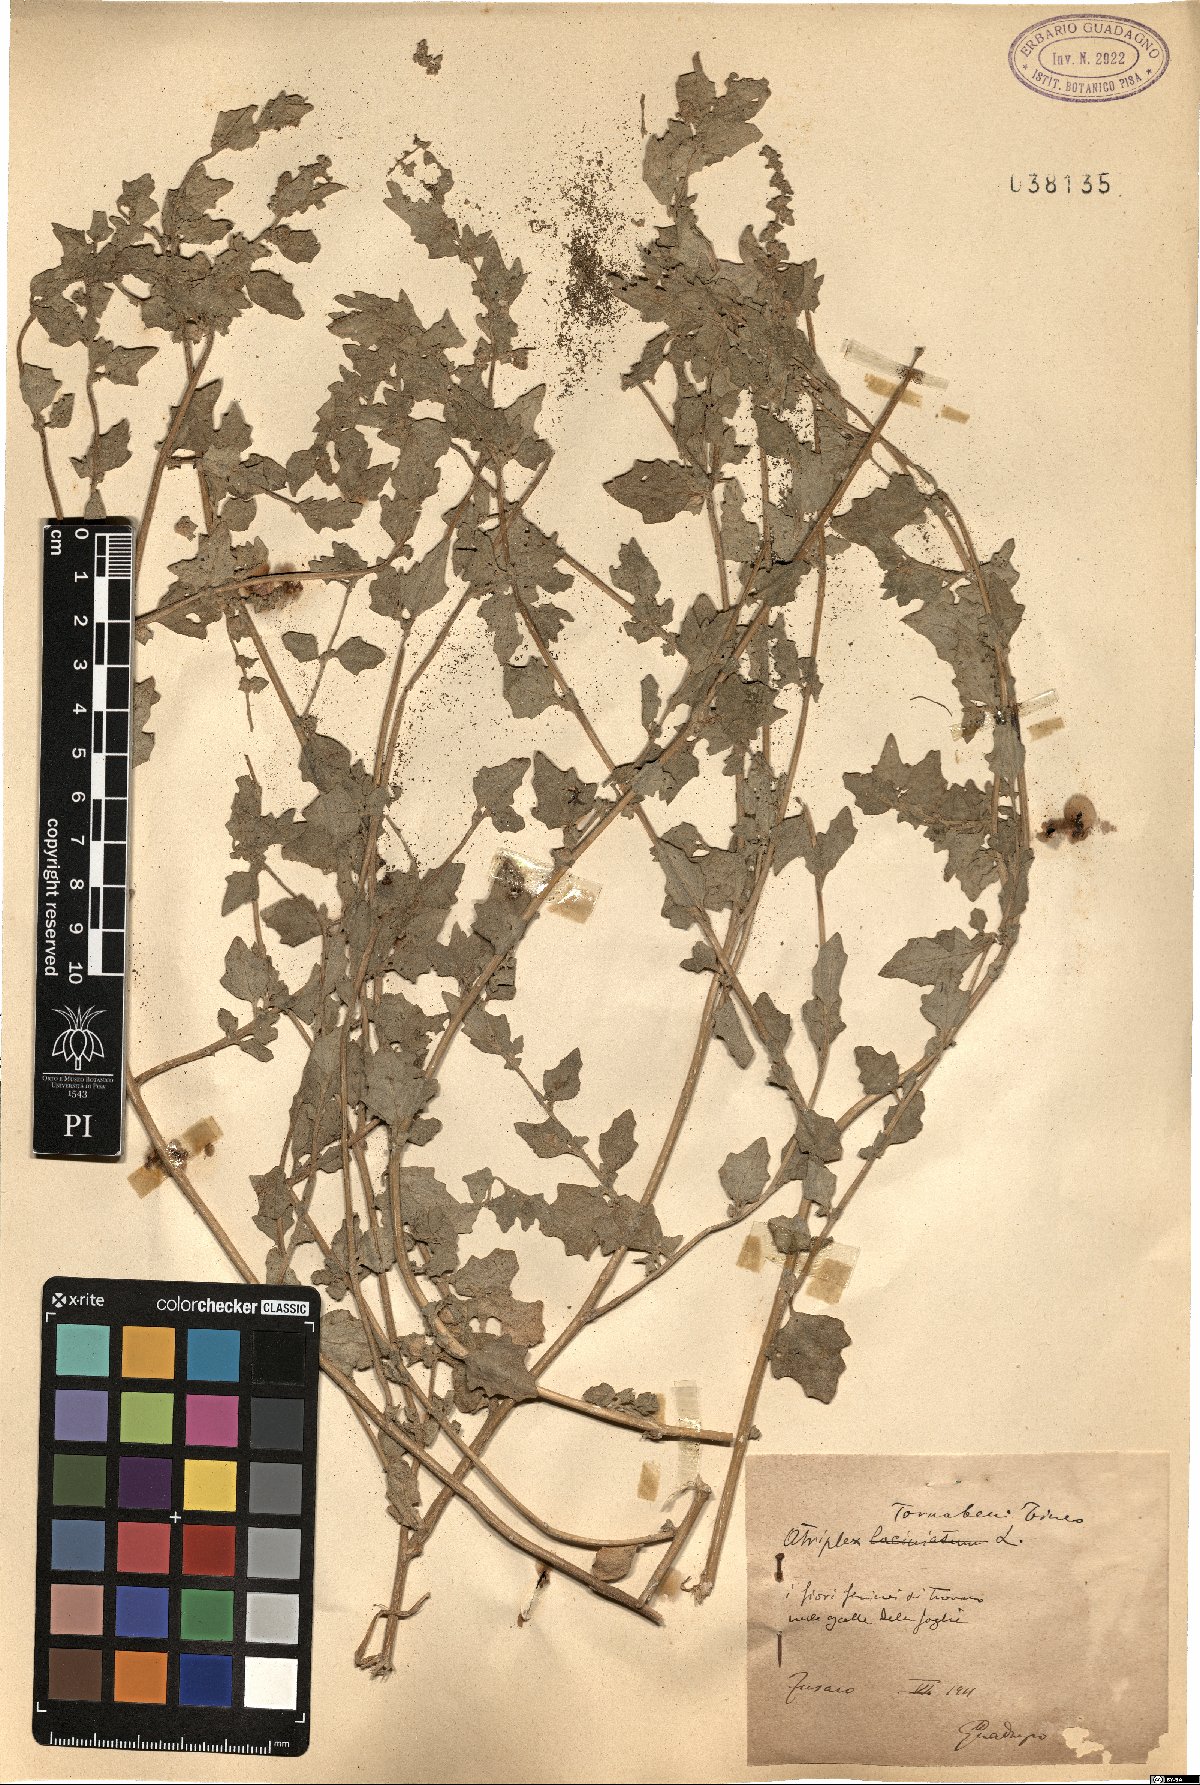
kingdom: Plantae
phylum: Tracheophyta
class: Magnoliopsida
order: Caryophyllales
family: Amaranthaceae
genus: Atriplex
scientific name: Atriplex tornabenei
